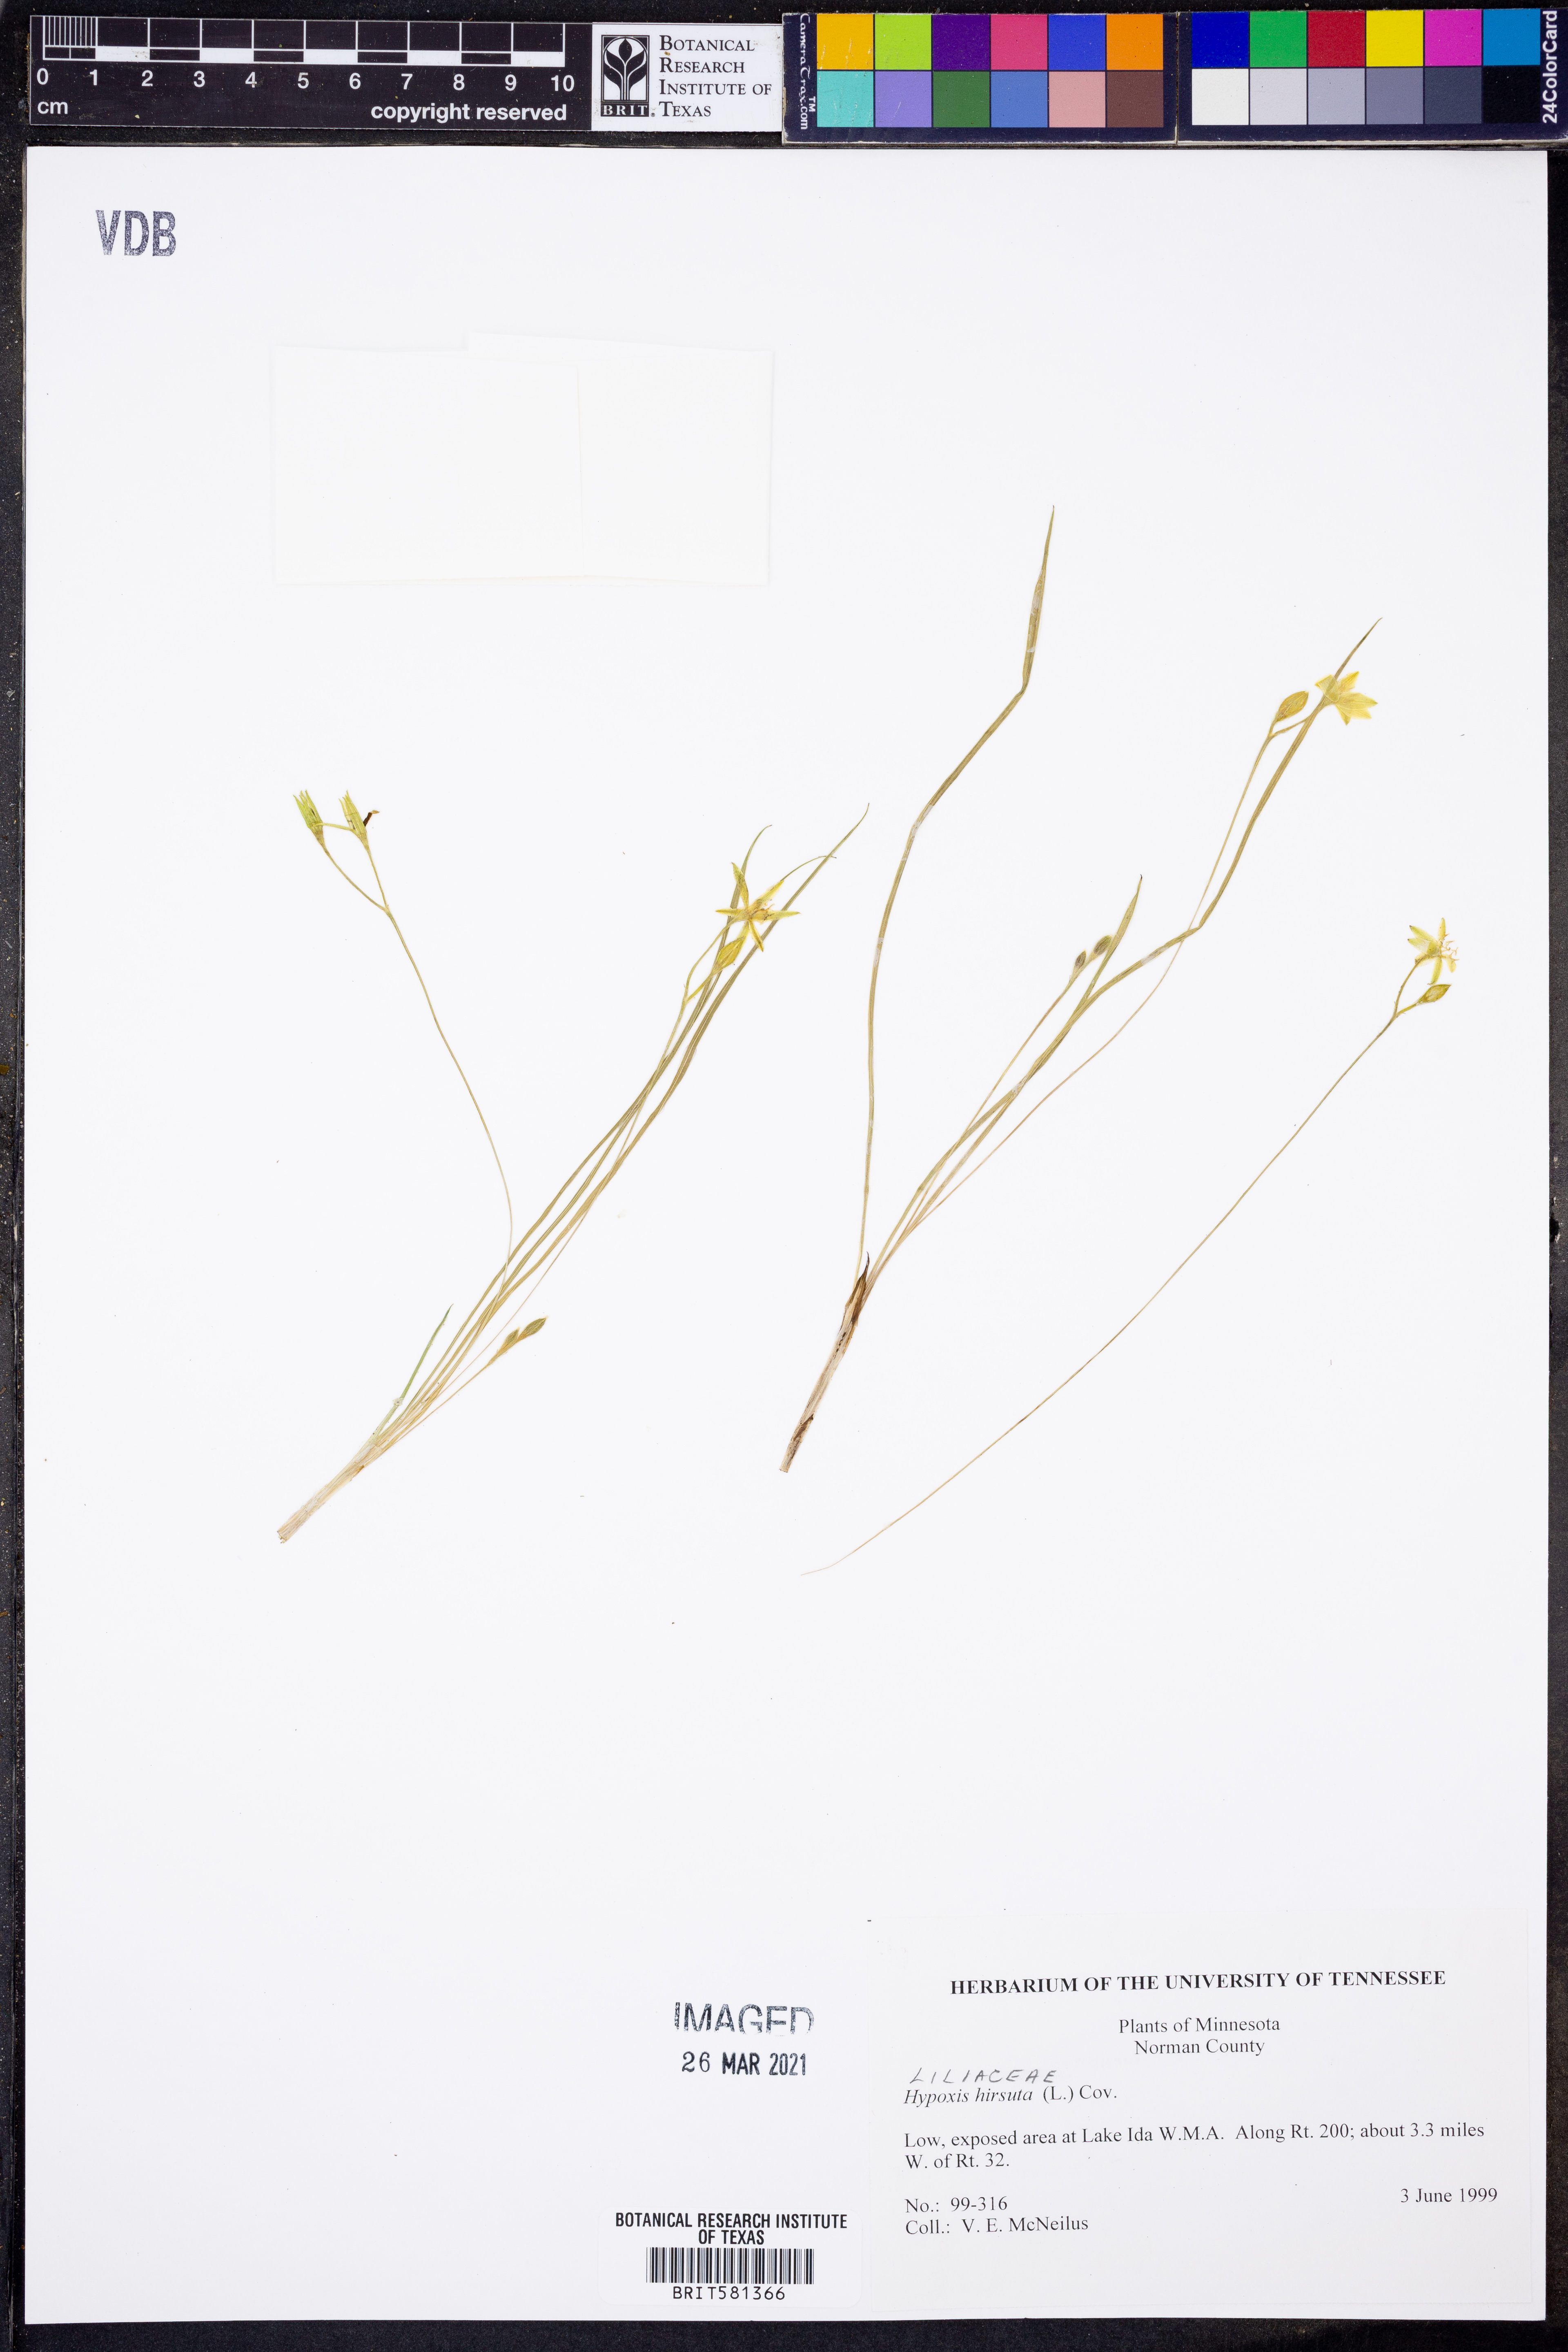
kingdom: Plantae
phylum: Tracheophyta
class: Liliopsida
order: Asparagales
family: Hypoxidaceae
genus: Hypoxis
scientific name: Hypoxis hirsuta
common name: Common goldstar
